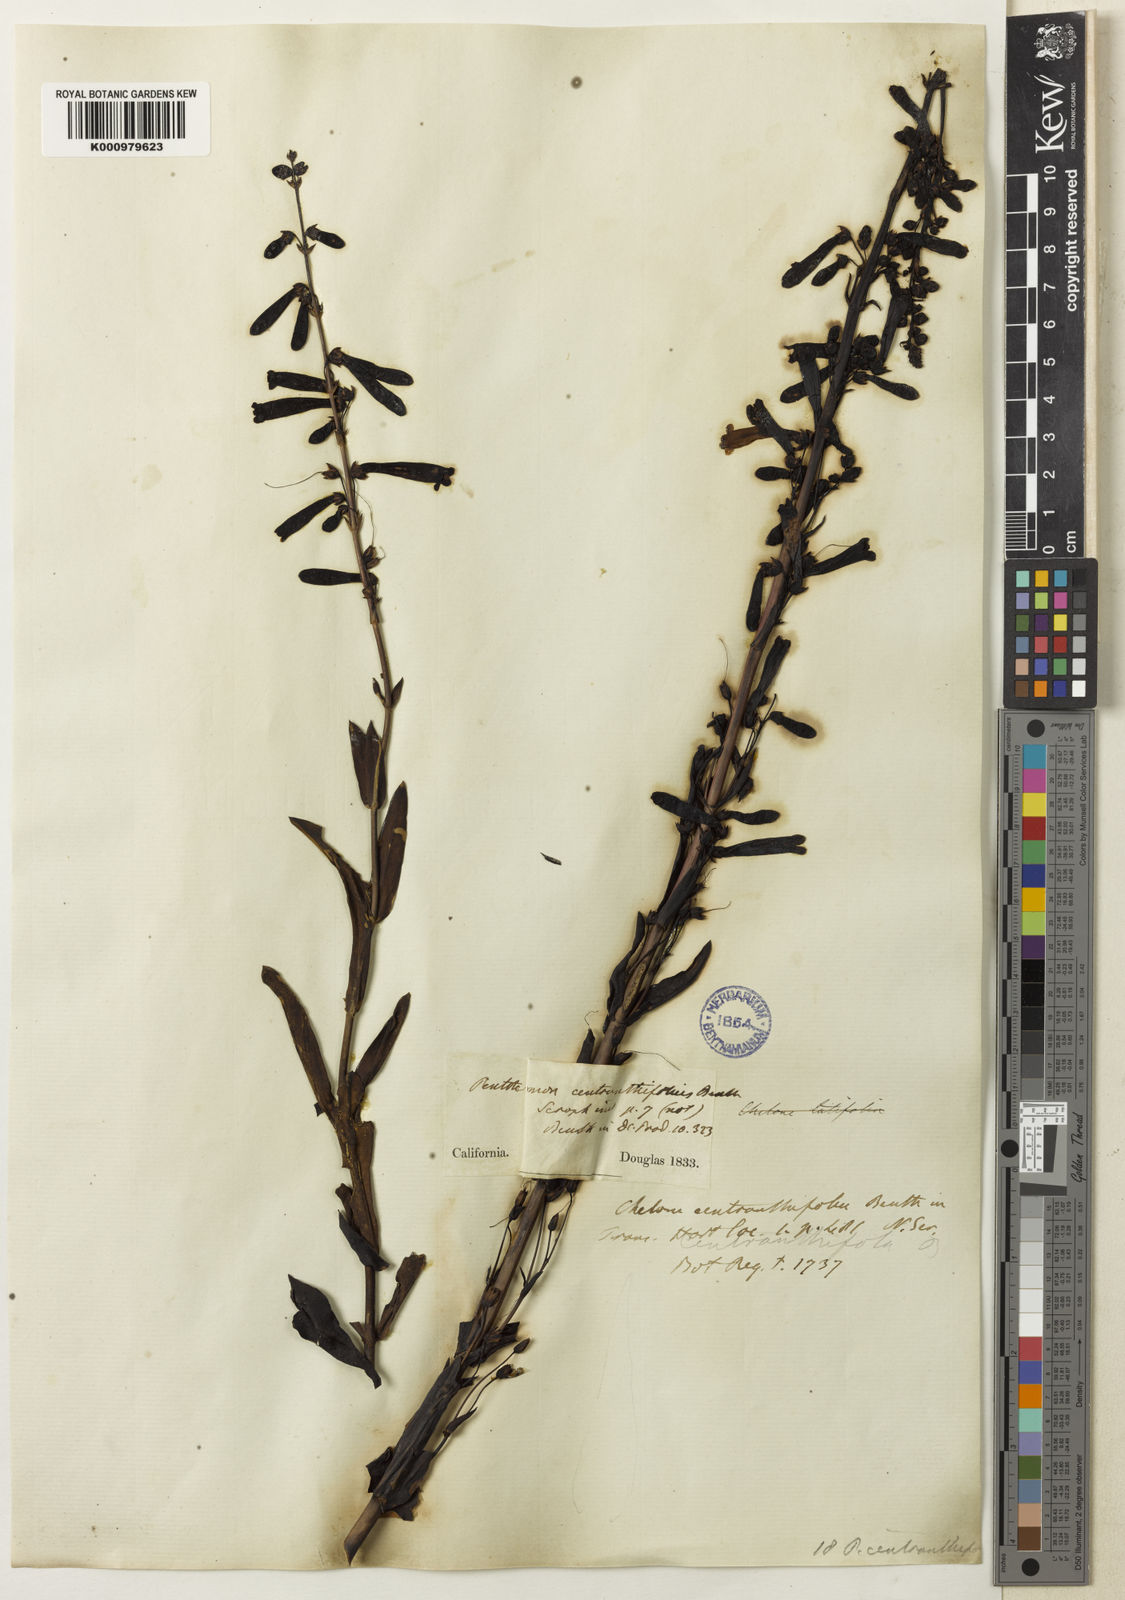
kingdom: Plantae
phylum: Tracheophyta
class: Magnoliopsida
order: Lamiales
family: Plantaginaceae
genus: Penstemon
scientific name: Penstemon centranthifolius
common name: Scarlet bugler
